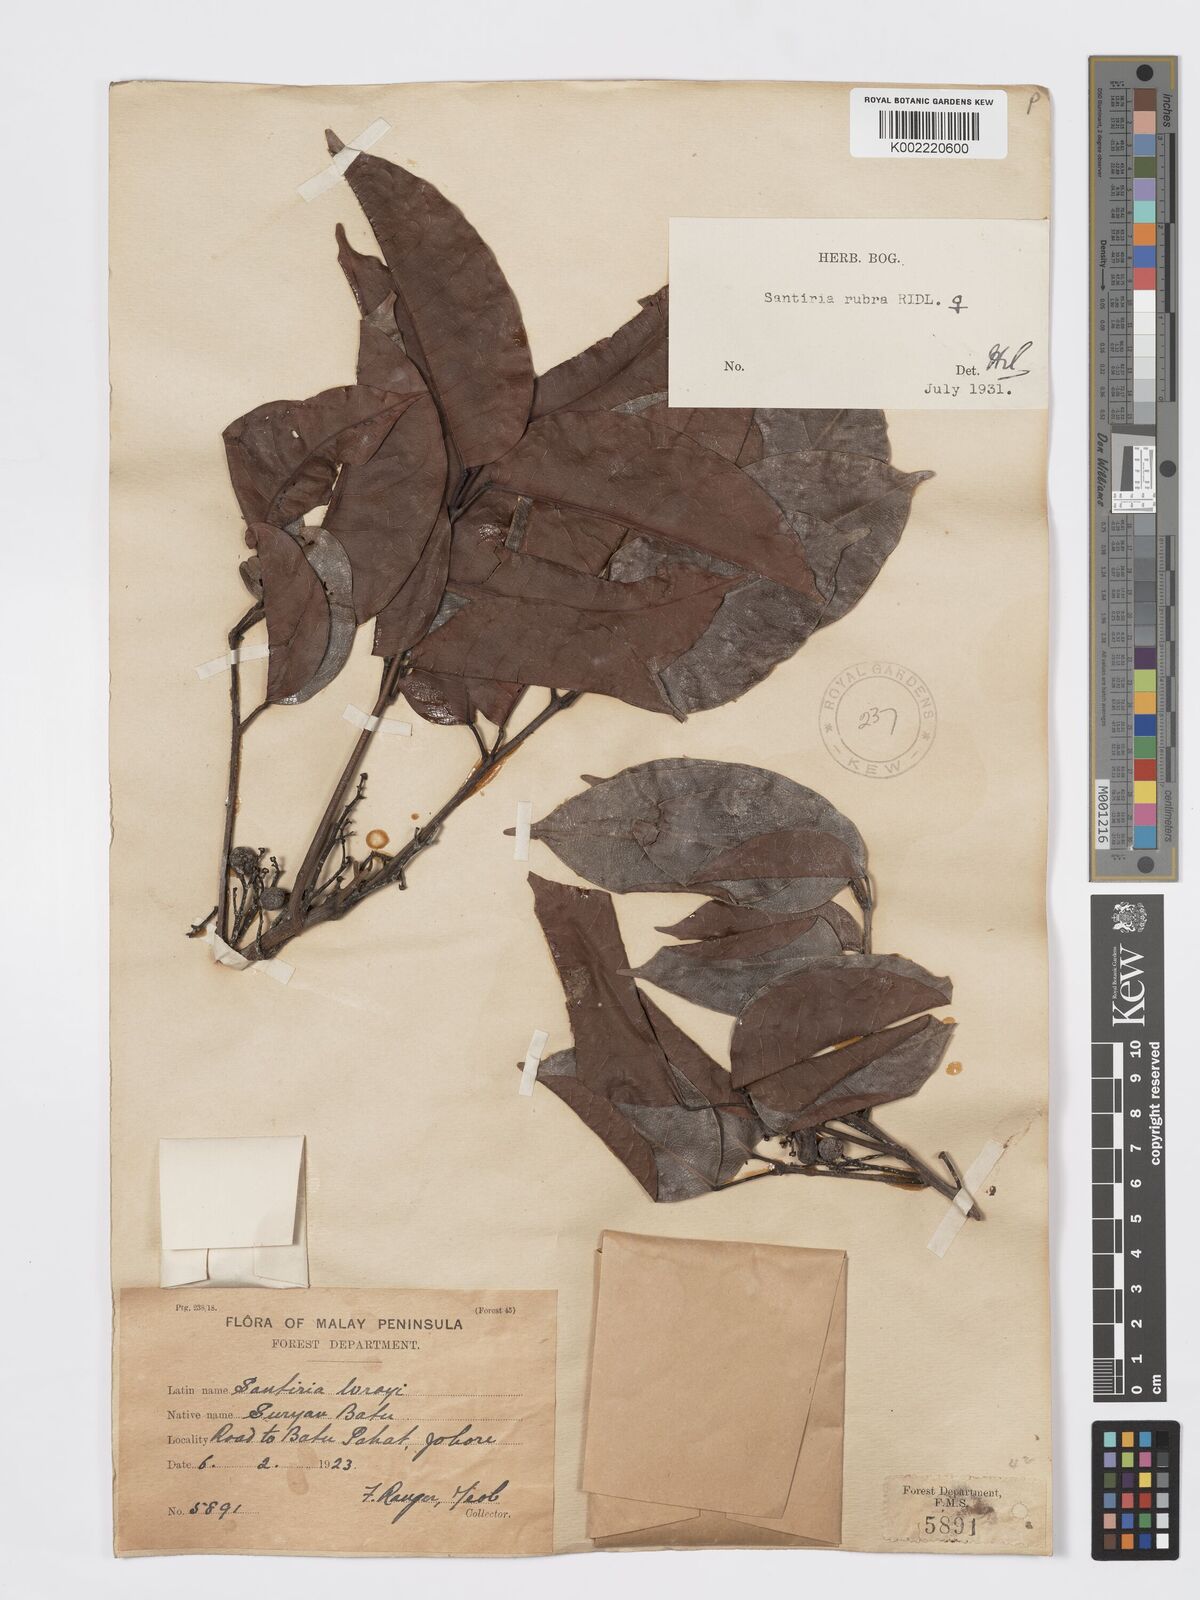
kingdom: Plantae
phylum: Tracheophyta
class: Magnoliopsida
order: Sapindales
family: Burseraceae
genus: Santiria
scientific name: Santiria apiculata
